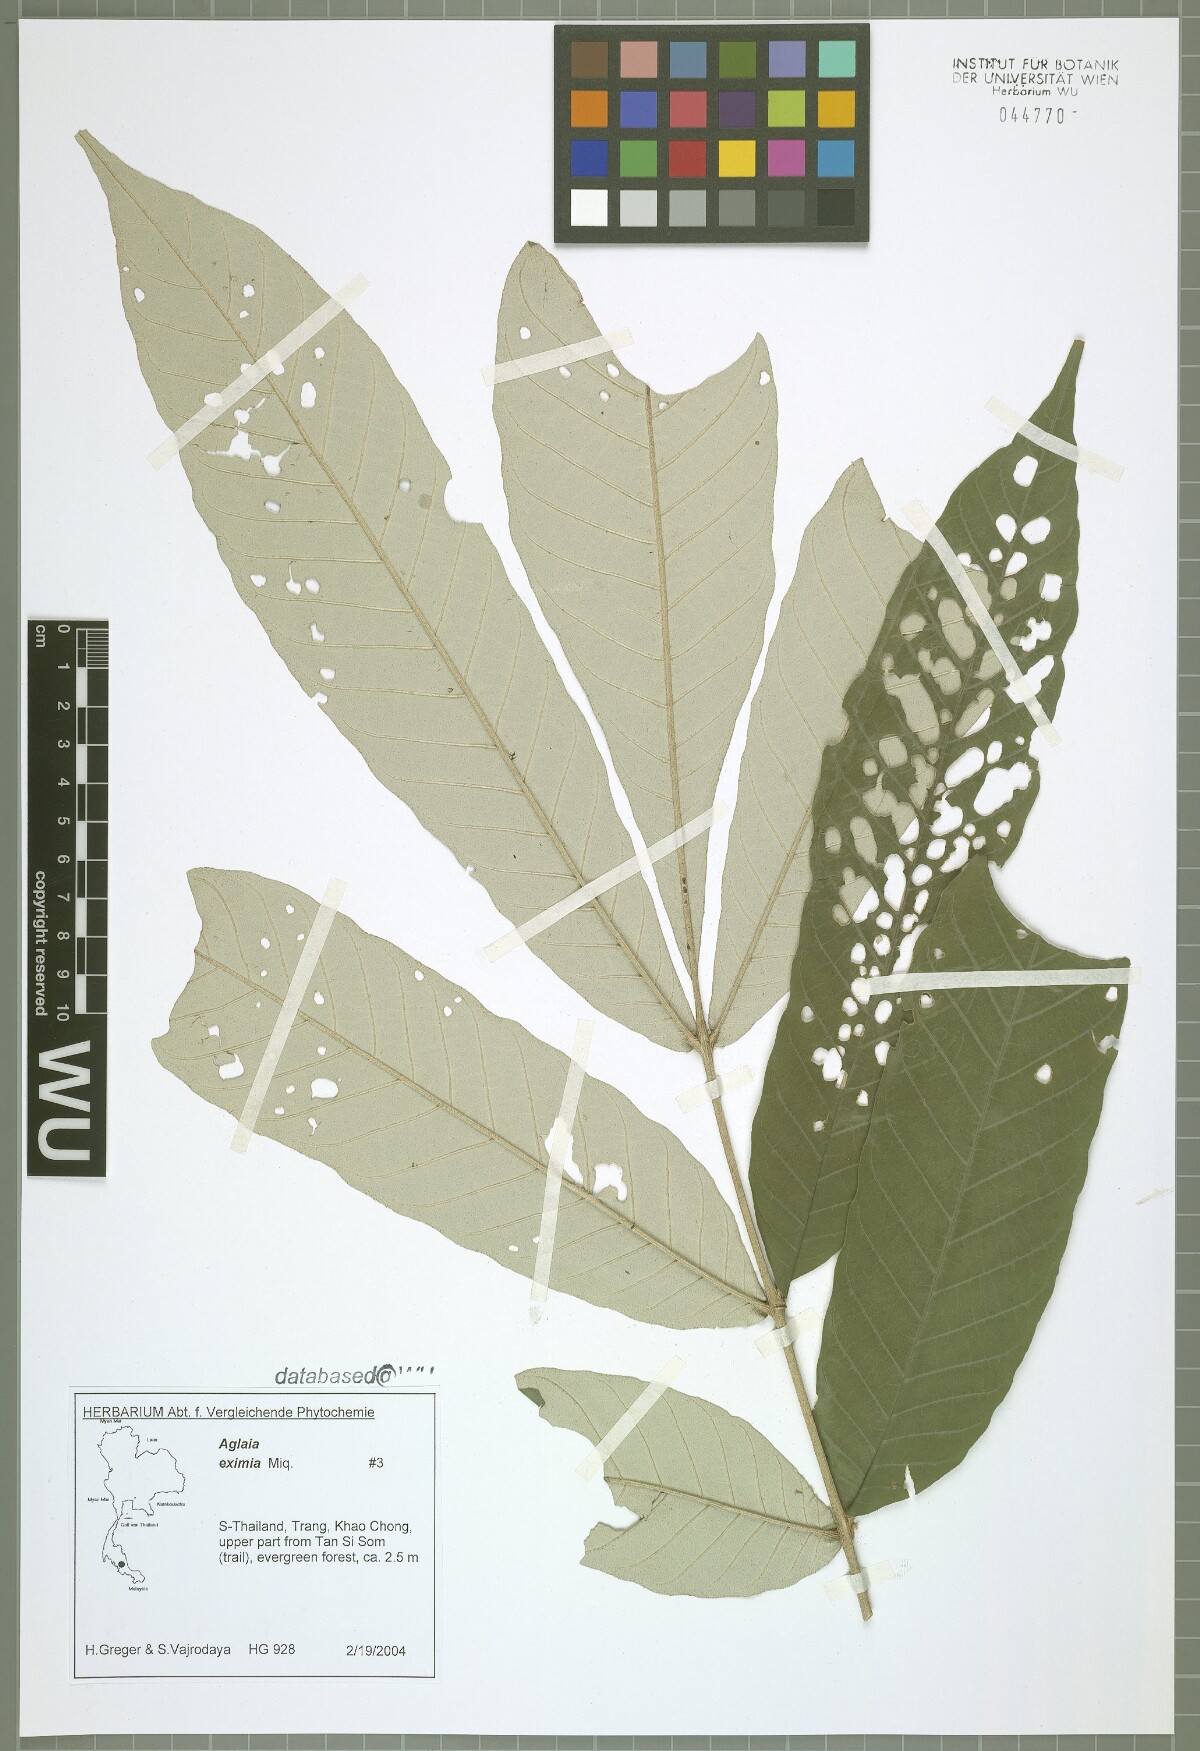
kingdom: Plantae
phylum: Tracheophyta
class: Magnoliopsida
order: Sapindales
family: Meliaceae
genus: Aglaia
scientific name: Aglaia eximia
